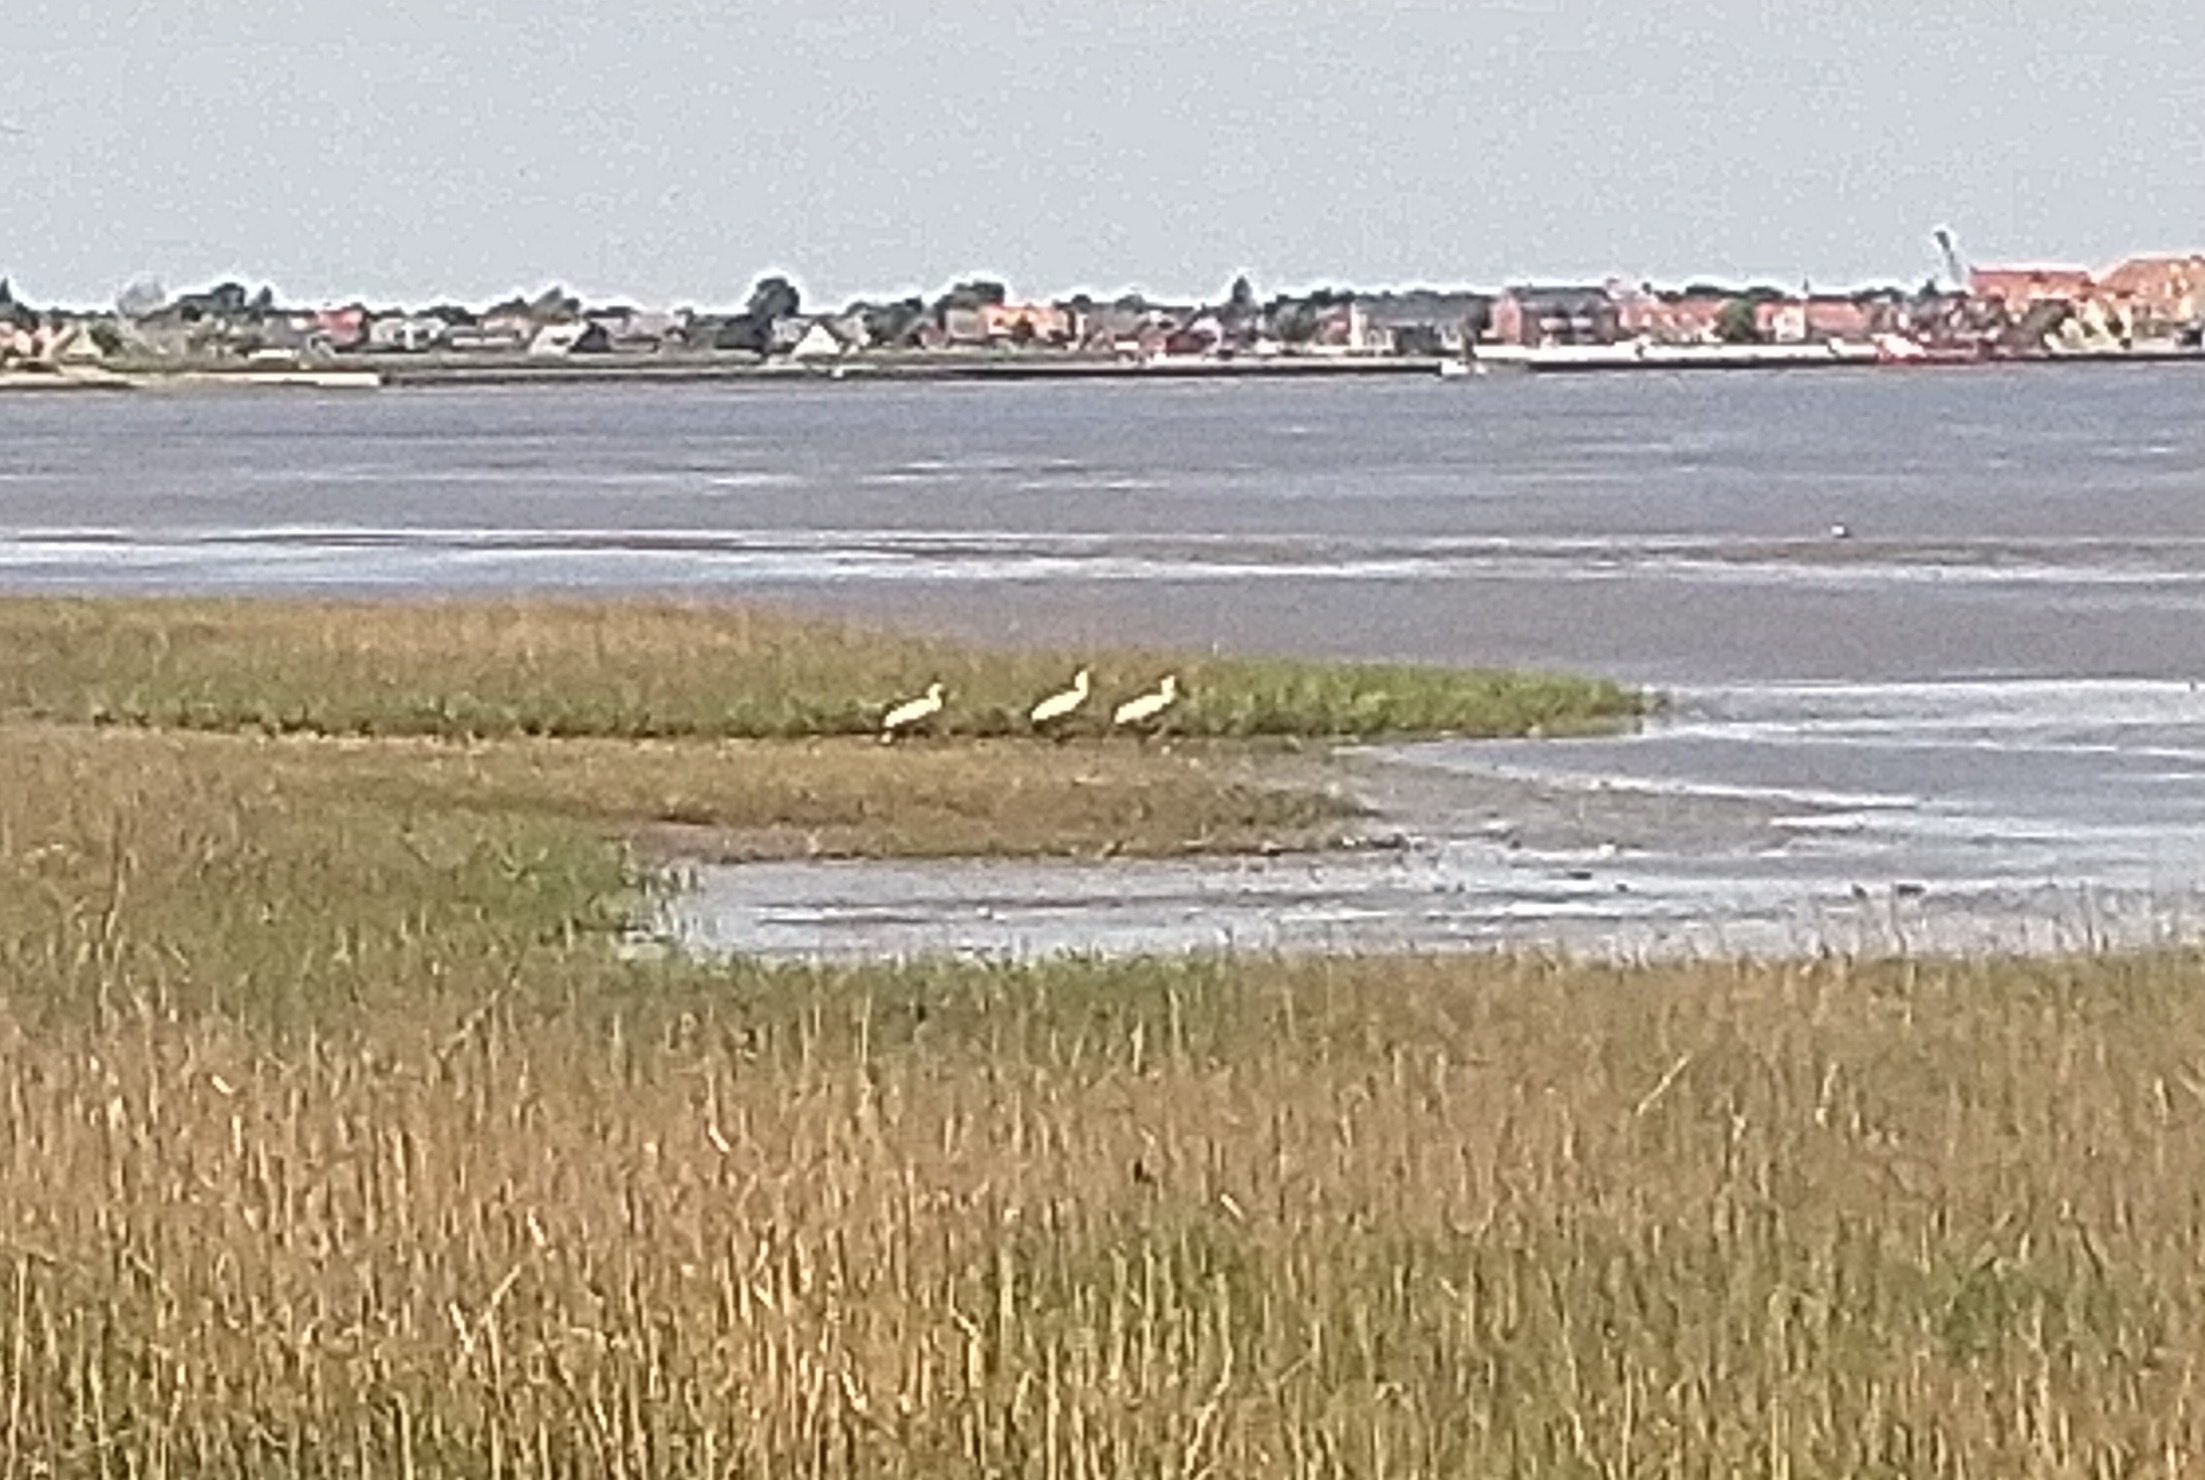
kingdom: Animalia
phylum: Chordata
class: Aves
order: Pelecaniformes
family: Threskiornithidae
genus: Platalea
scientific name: Platalea leucorodia
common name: Skestork
